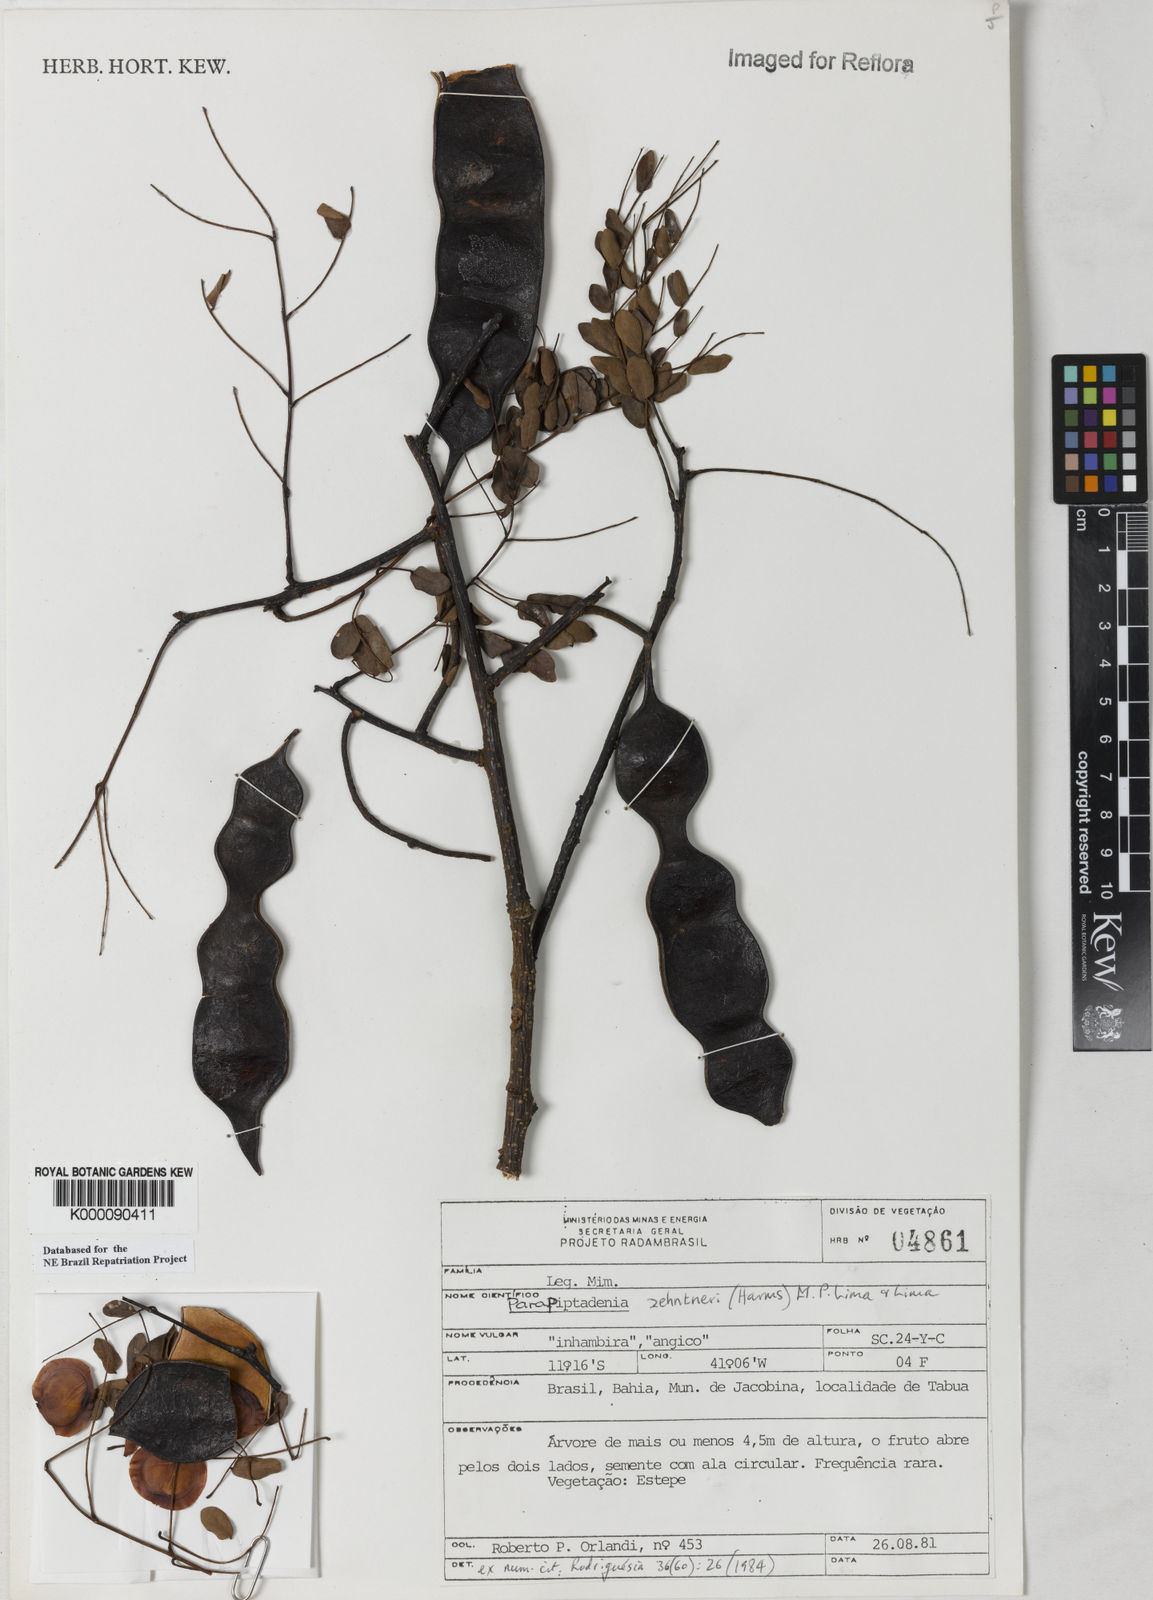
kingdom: Plantae
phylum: Tracheophyta
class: Magnoliopsida
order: Fabales
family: Fabaceae
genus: Parapiptadenia
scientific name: Parapiptadenia zehntneri
